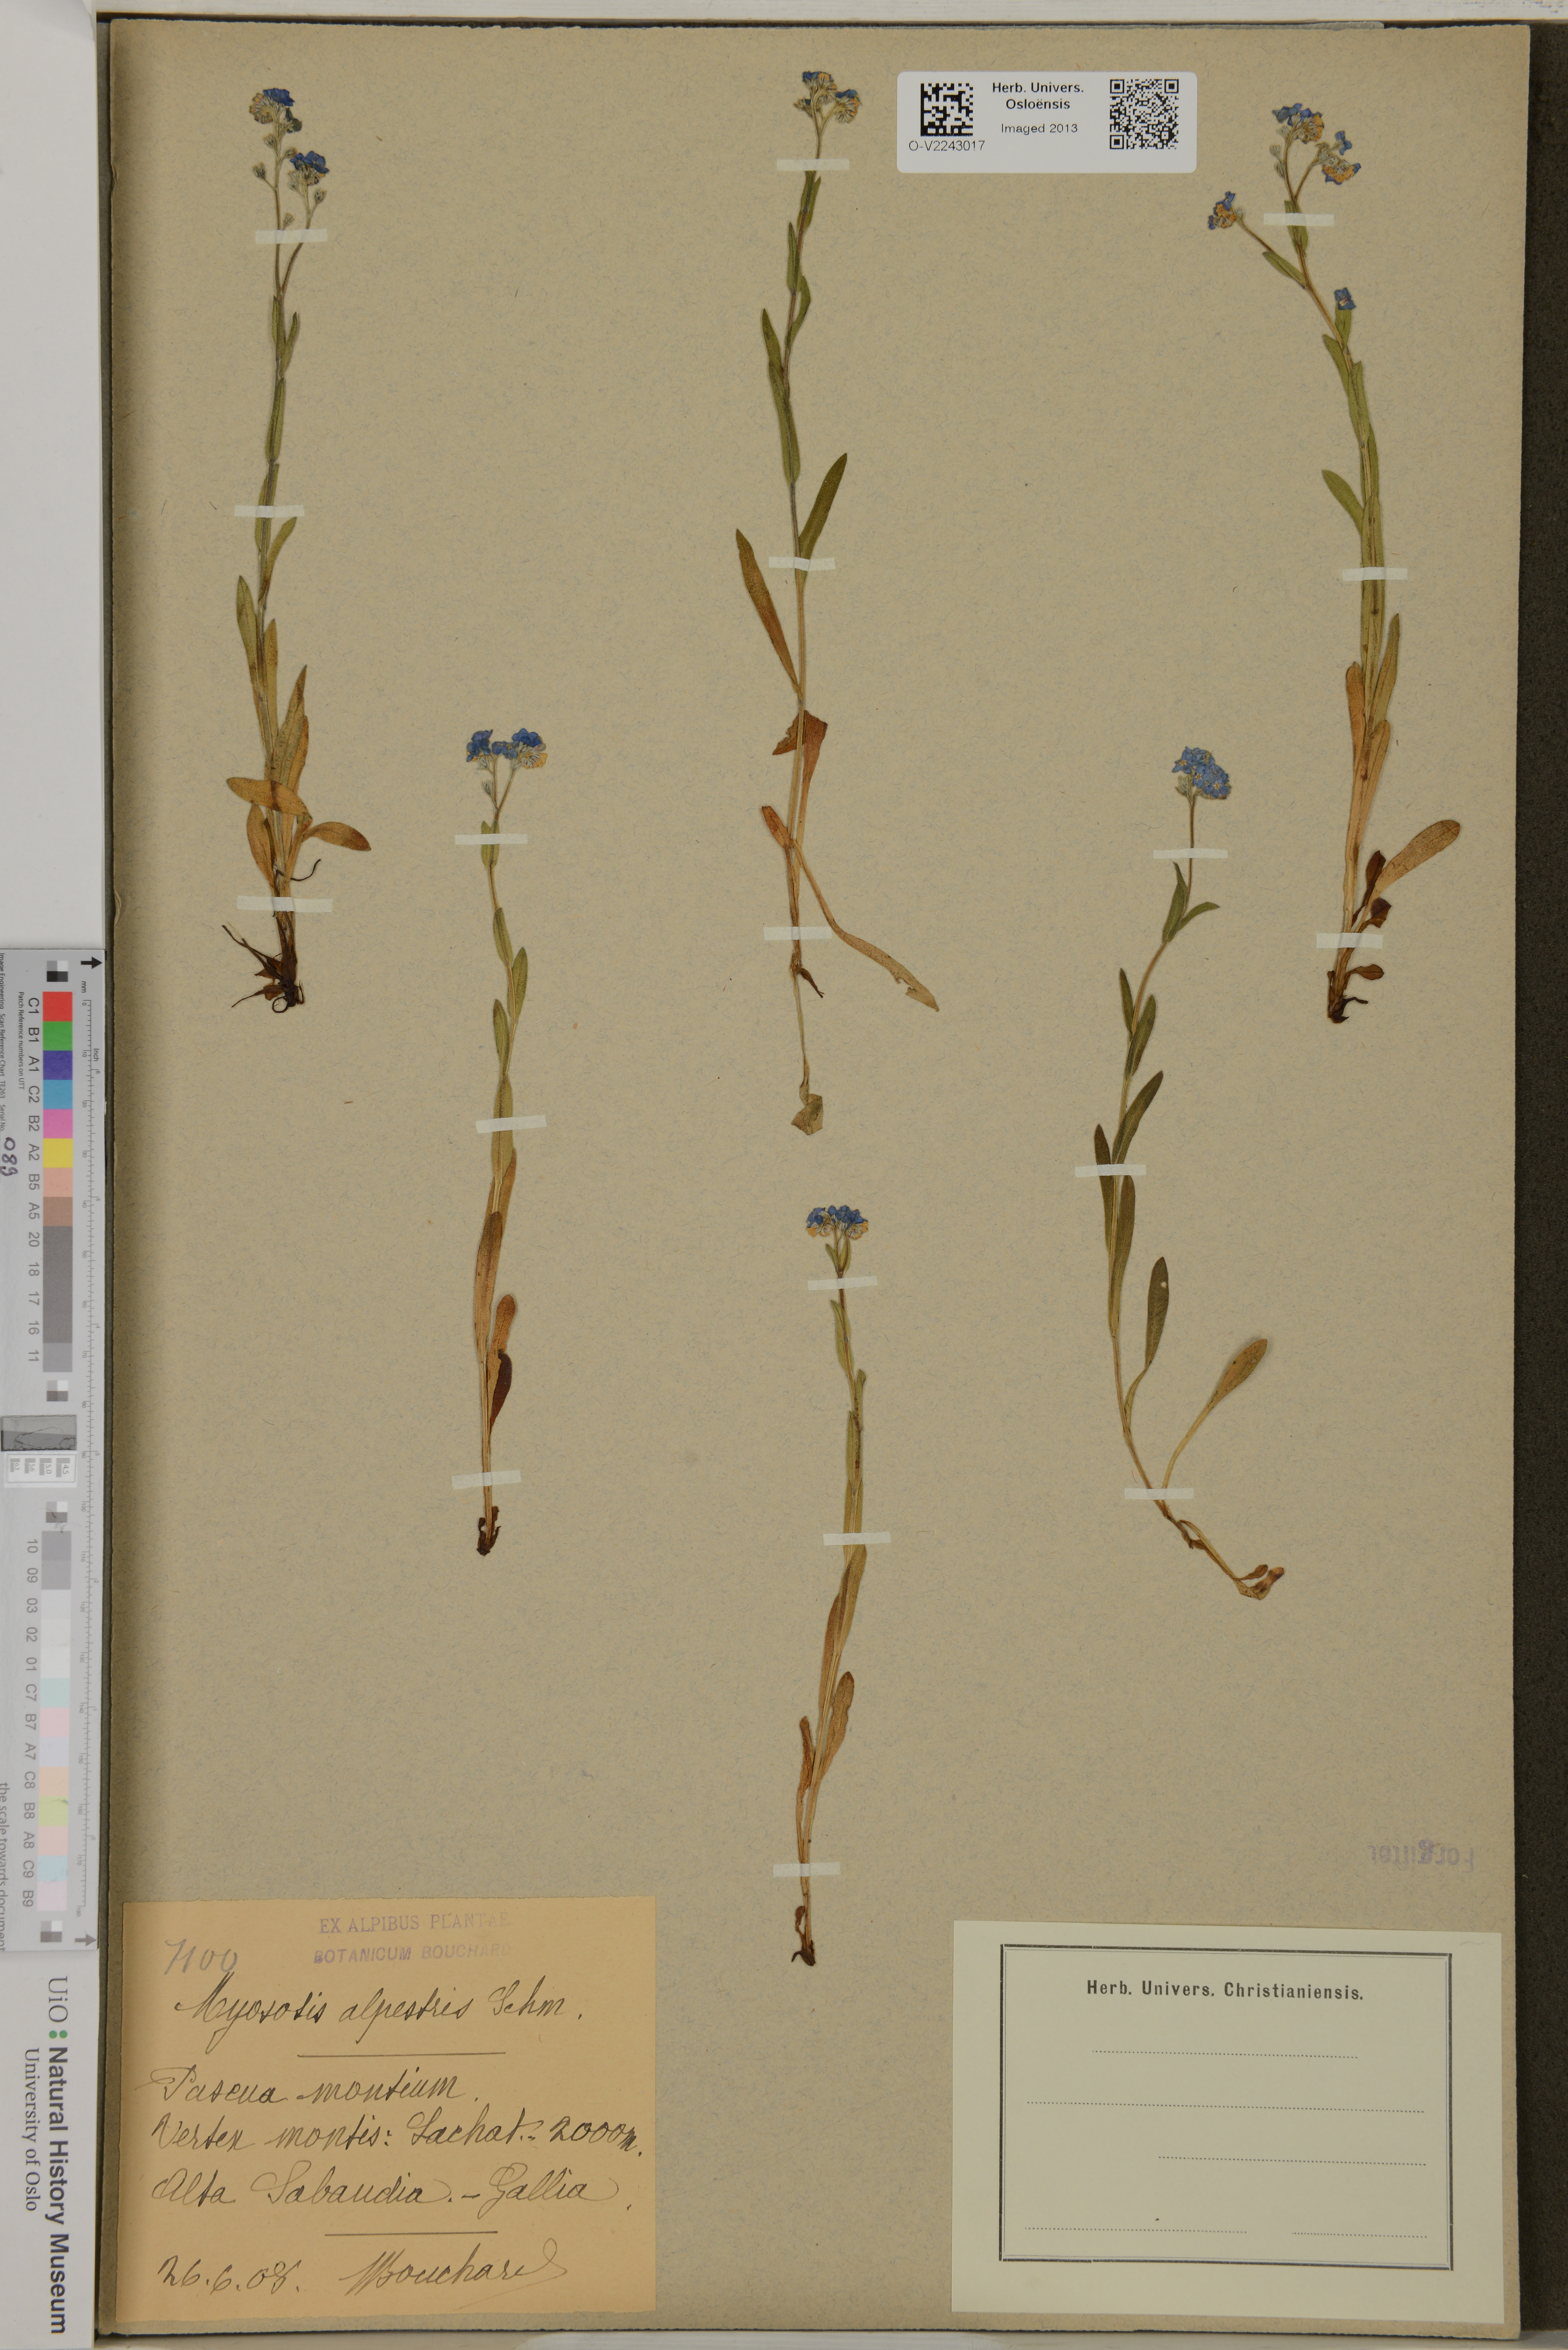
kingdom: Plantae
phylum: Tracheophyta
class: Magnoliopsida
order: Boraginales
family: Boraginaceae
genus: Myosotis
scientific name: Myosotis alpestris
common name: Alpine forget-me-not
